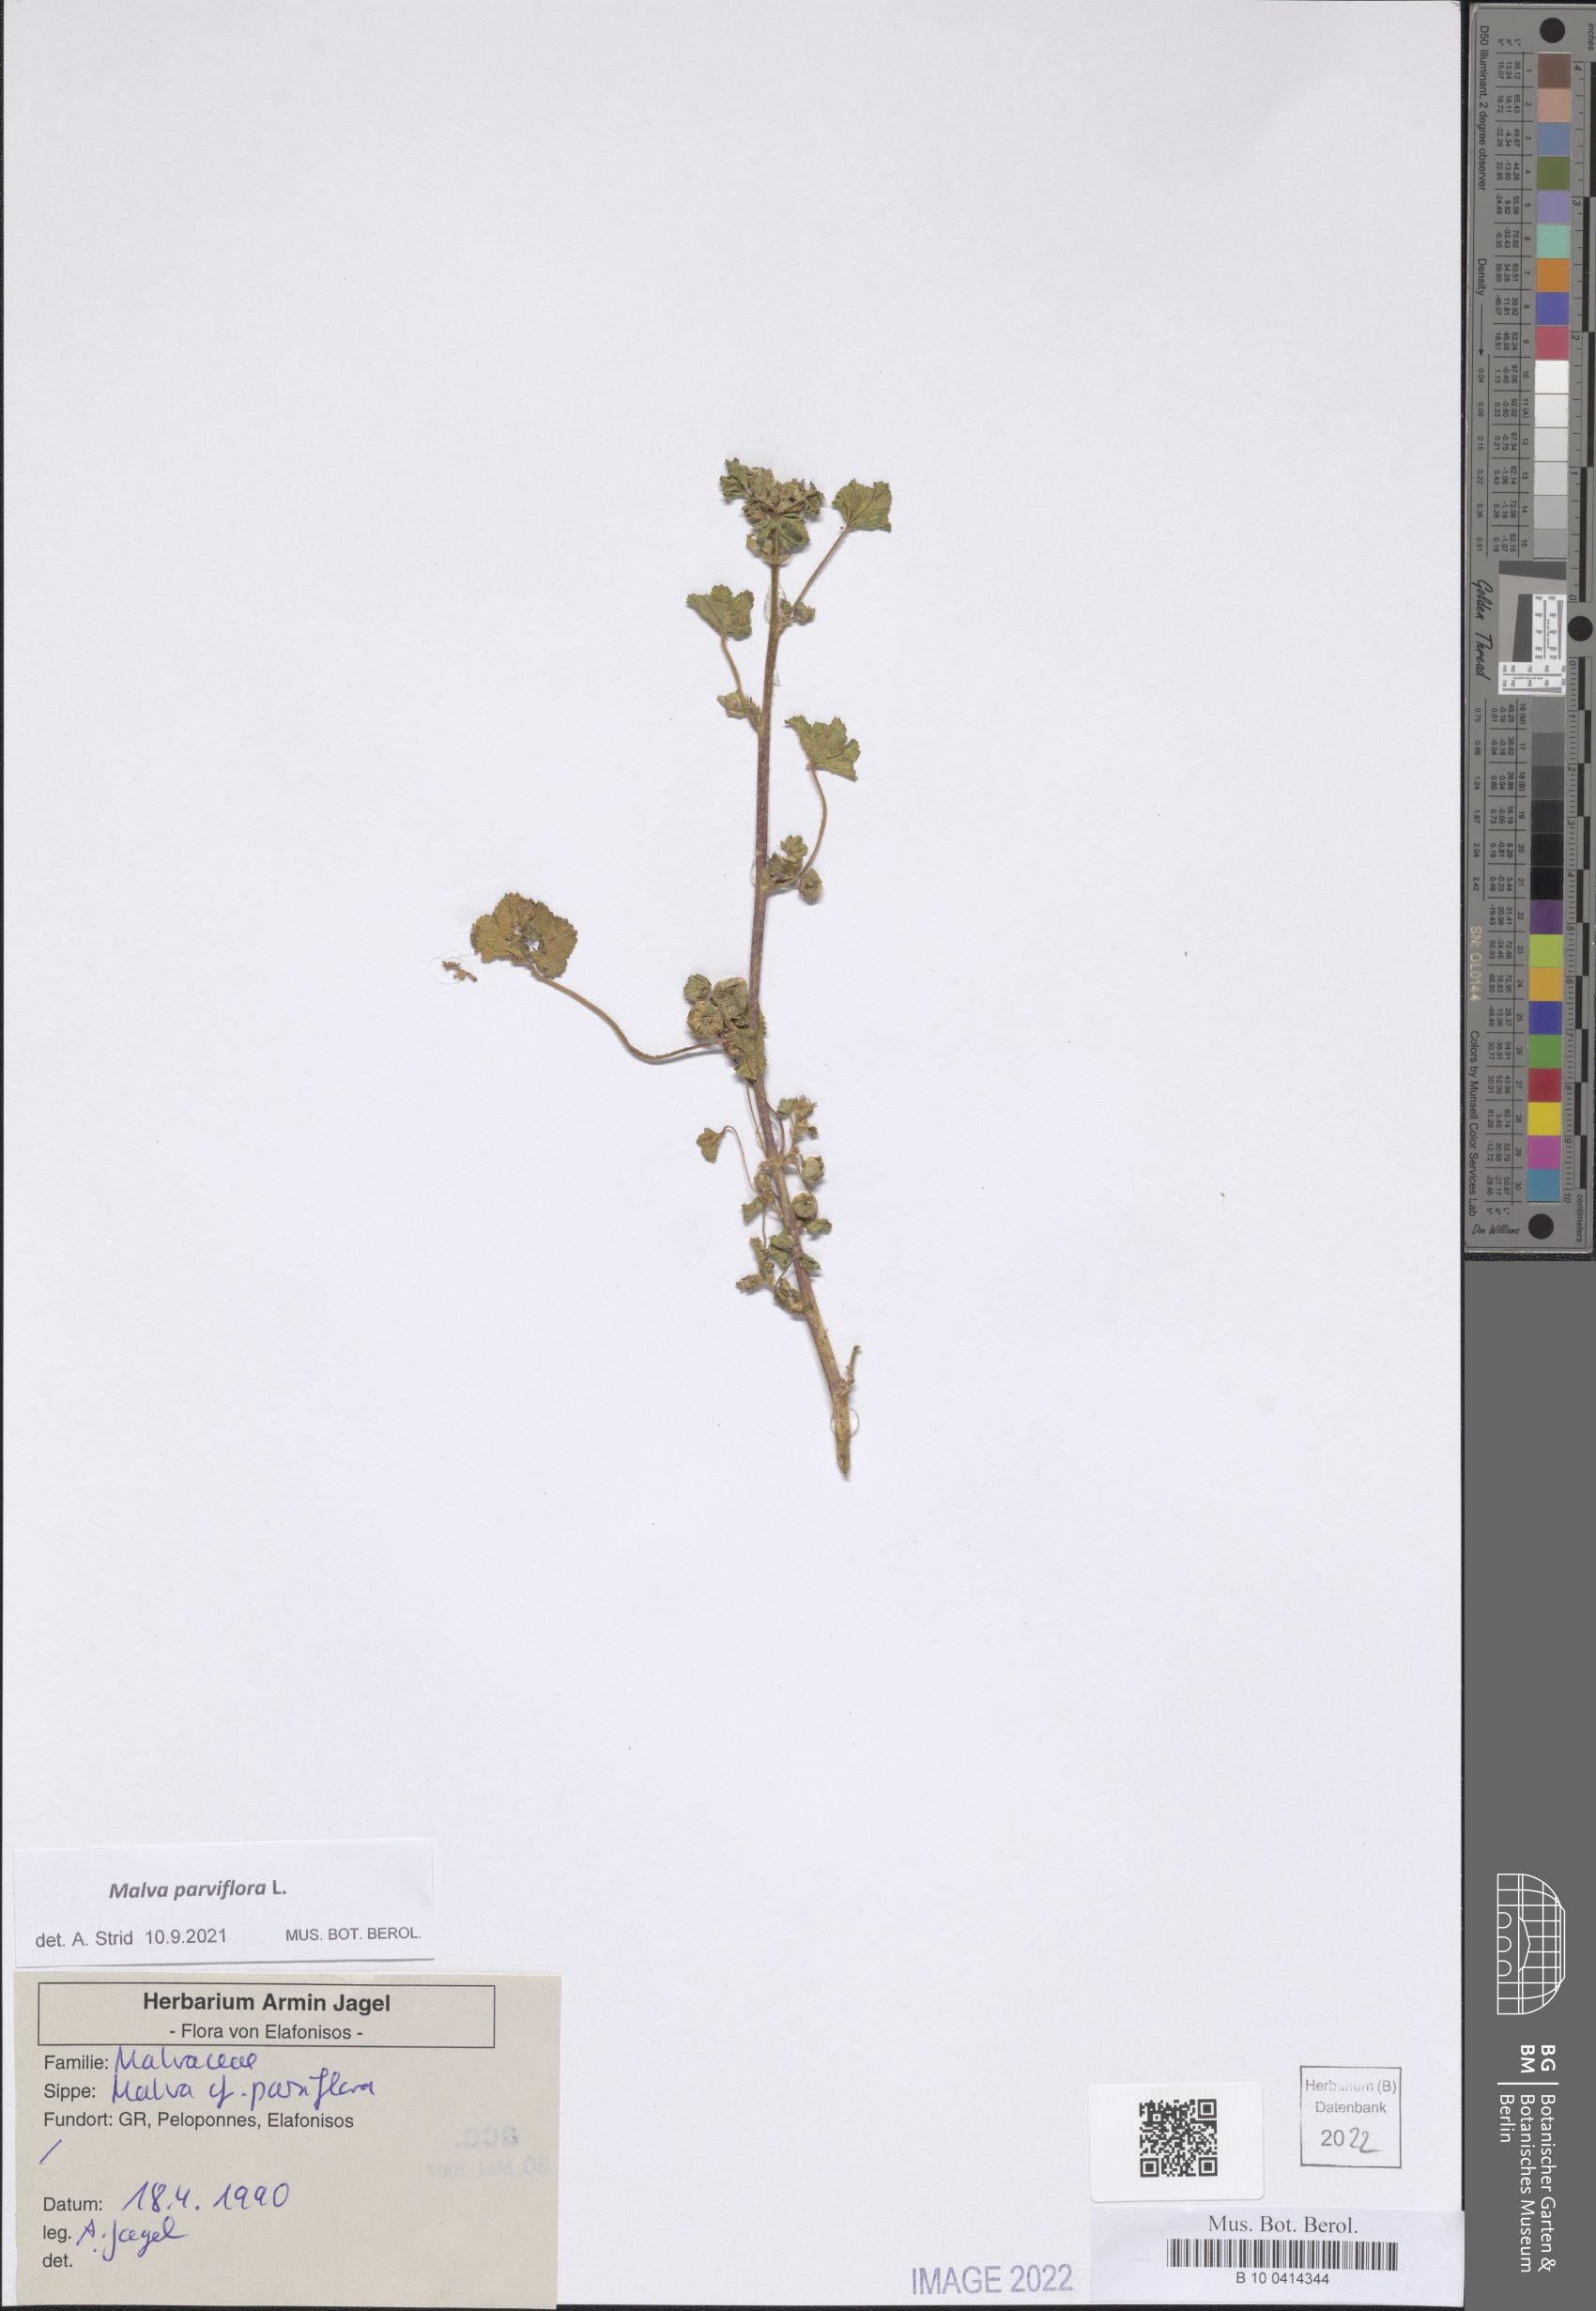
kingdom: Plantae
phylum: Tracheophyta
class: Magnoliopsida
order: Malvales
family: Malvaceae
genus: Malva
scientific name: Malva parviflora
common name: Least mallow
